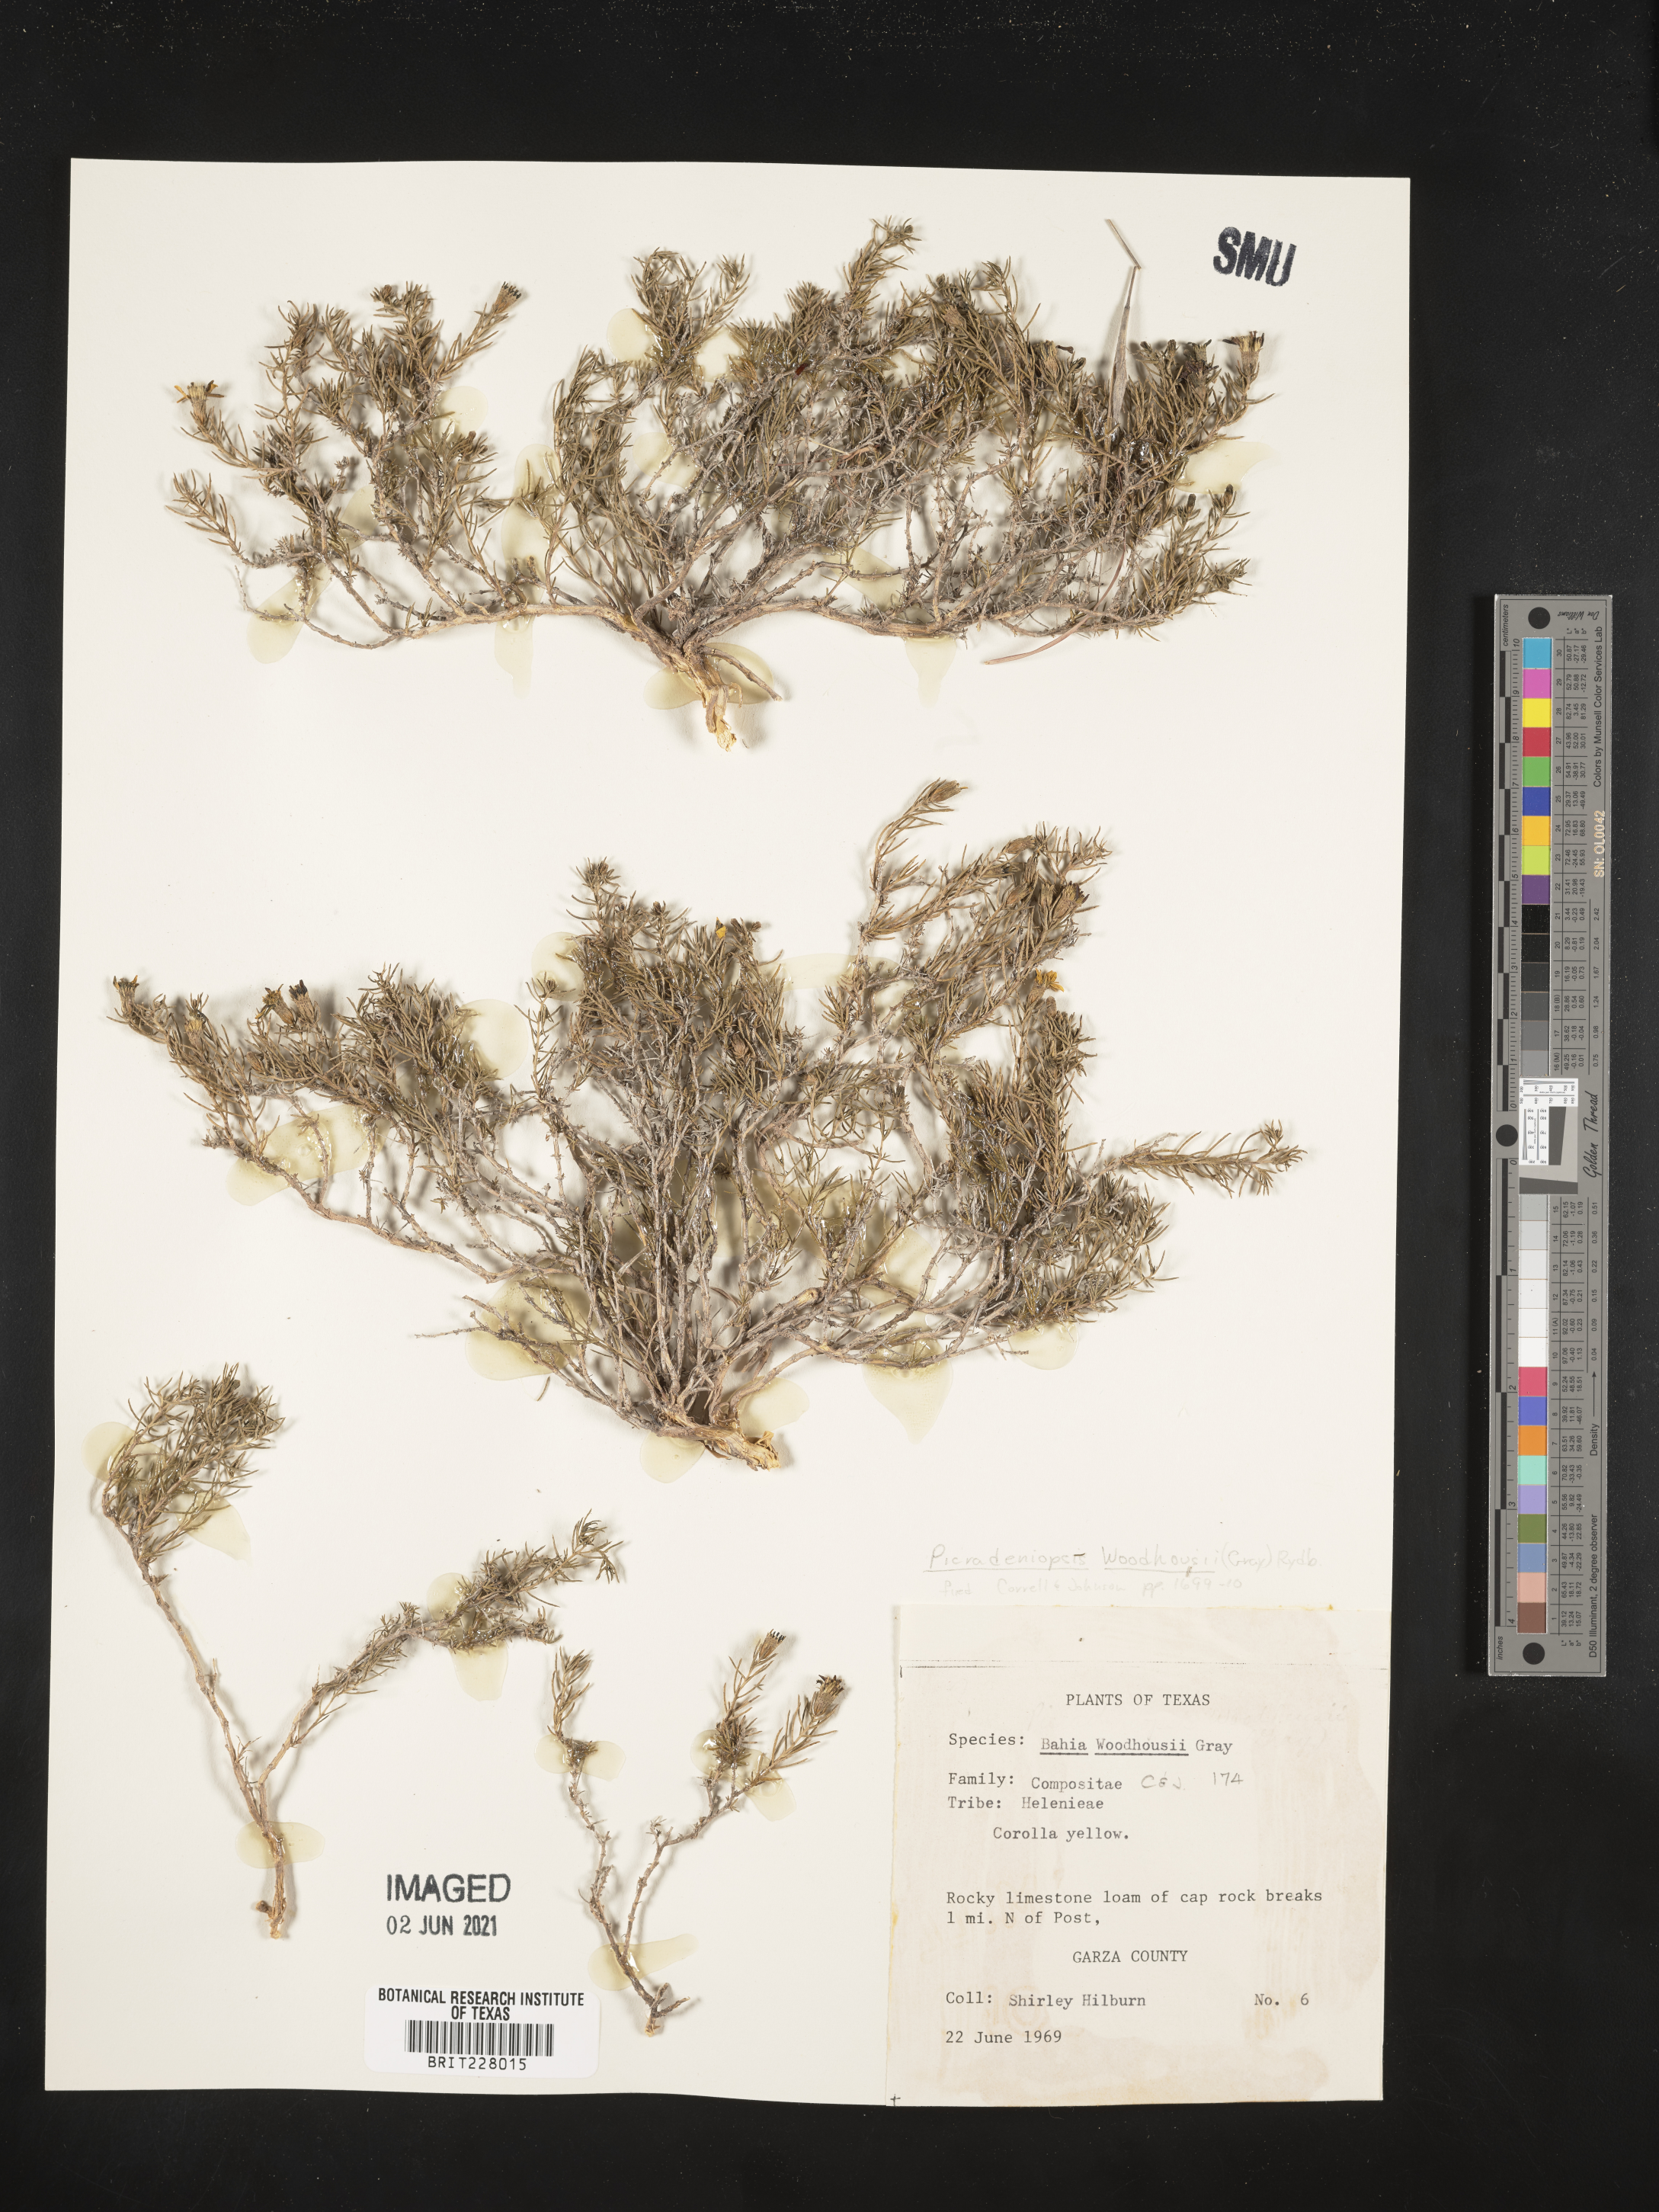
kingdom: Plantae
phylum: Tracheophyta
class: Magnoliopsida
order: Asterales
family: Asteraceae
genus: Picradeniopsis
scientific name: Picradeniopsis woodhousei
